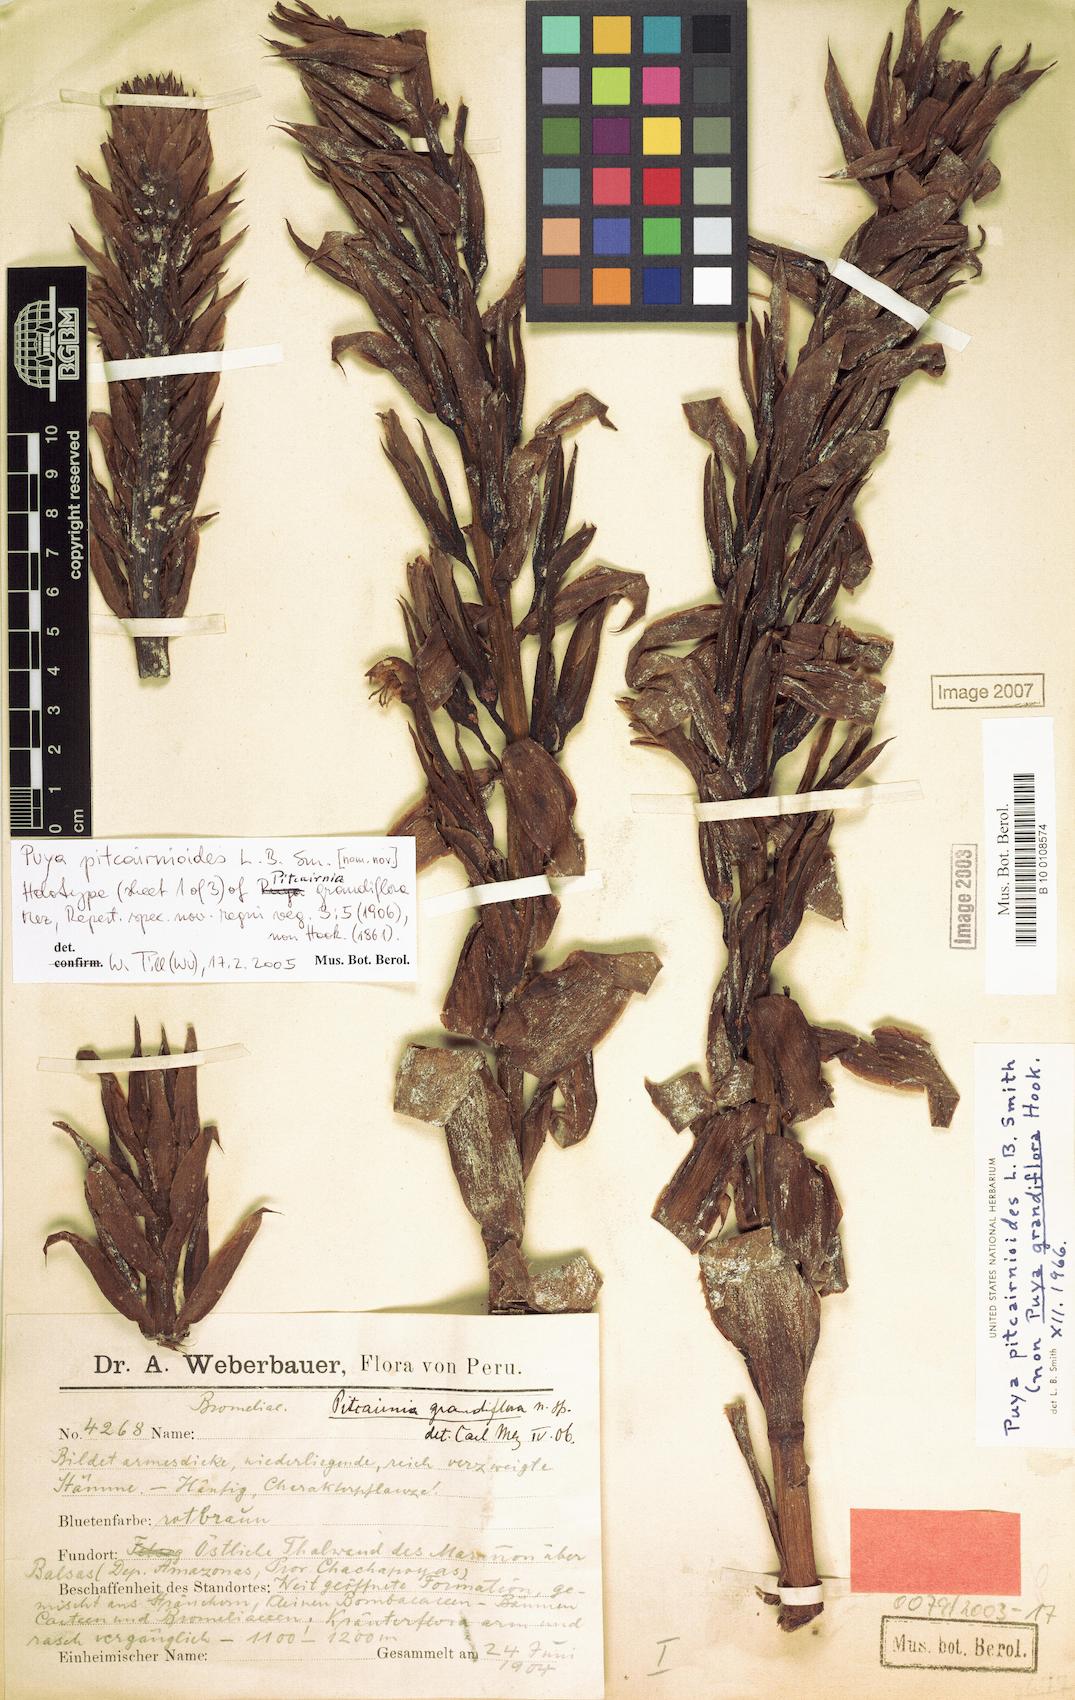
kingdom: Plantae
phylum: Tracheophyta
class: Liliopsida
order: Poales
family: Bromeliaceae
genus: Puya
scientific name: Puya pitcairnioides
